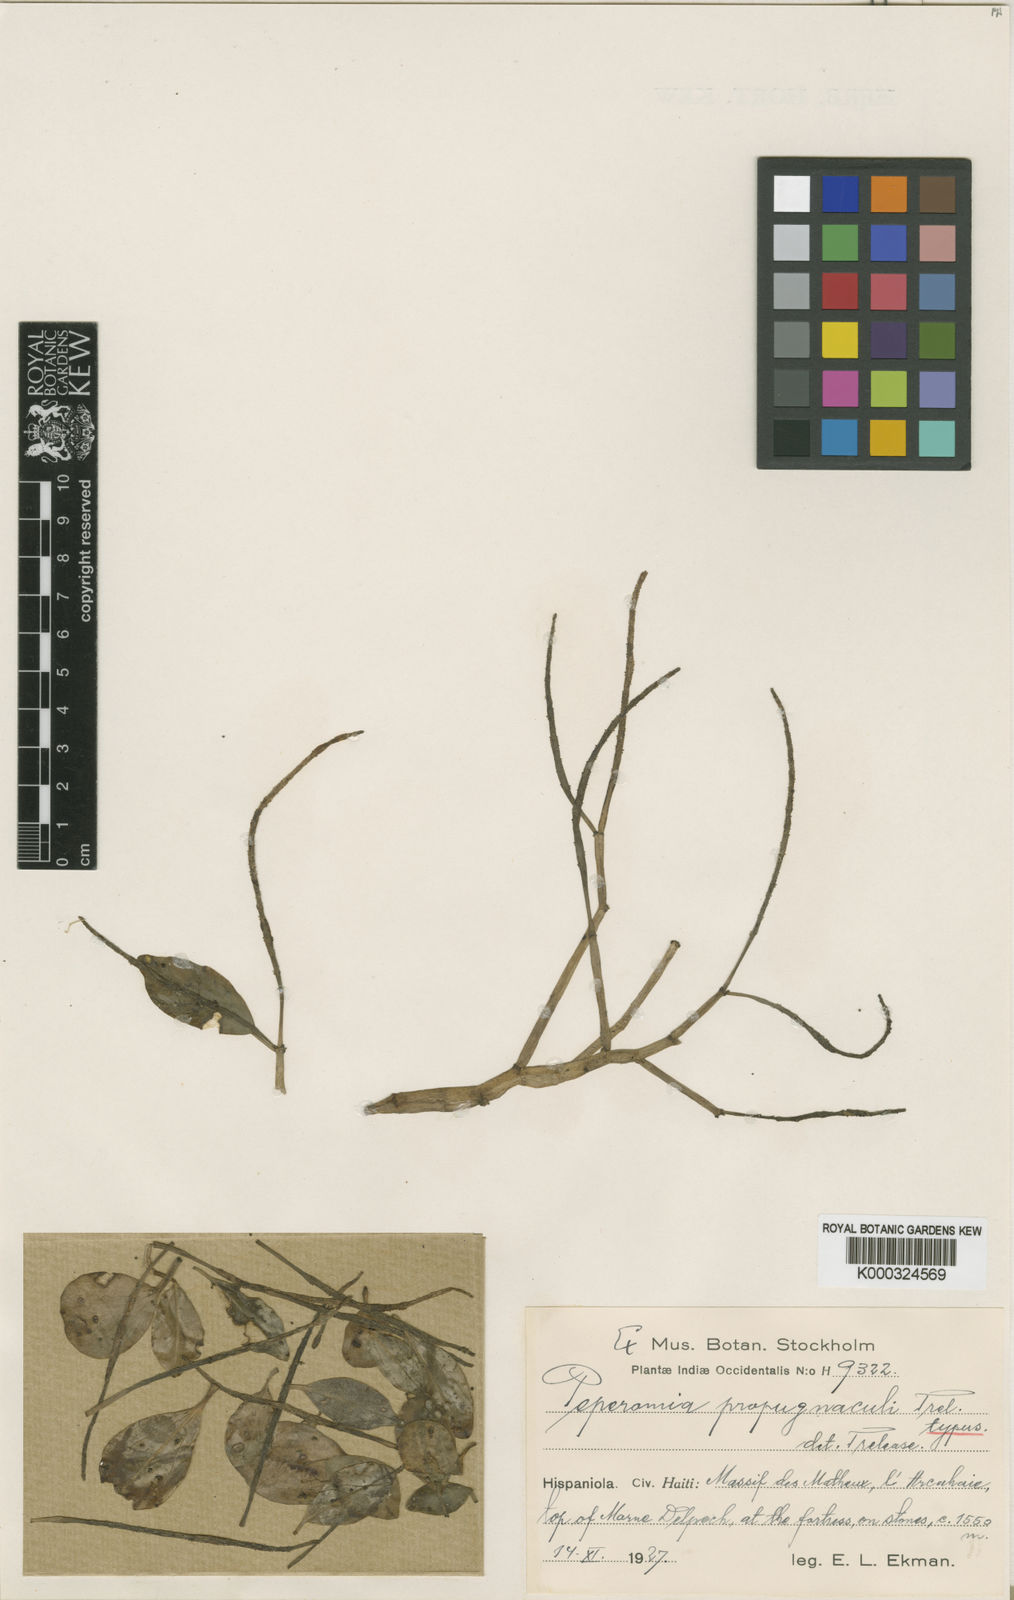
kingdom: Plantae
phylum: Tracheophyta
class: Magnoliopsida
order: Piperales
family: Piperaceae
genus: Peperomia
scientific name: Peperomia propugnaculi
